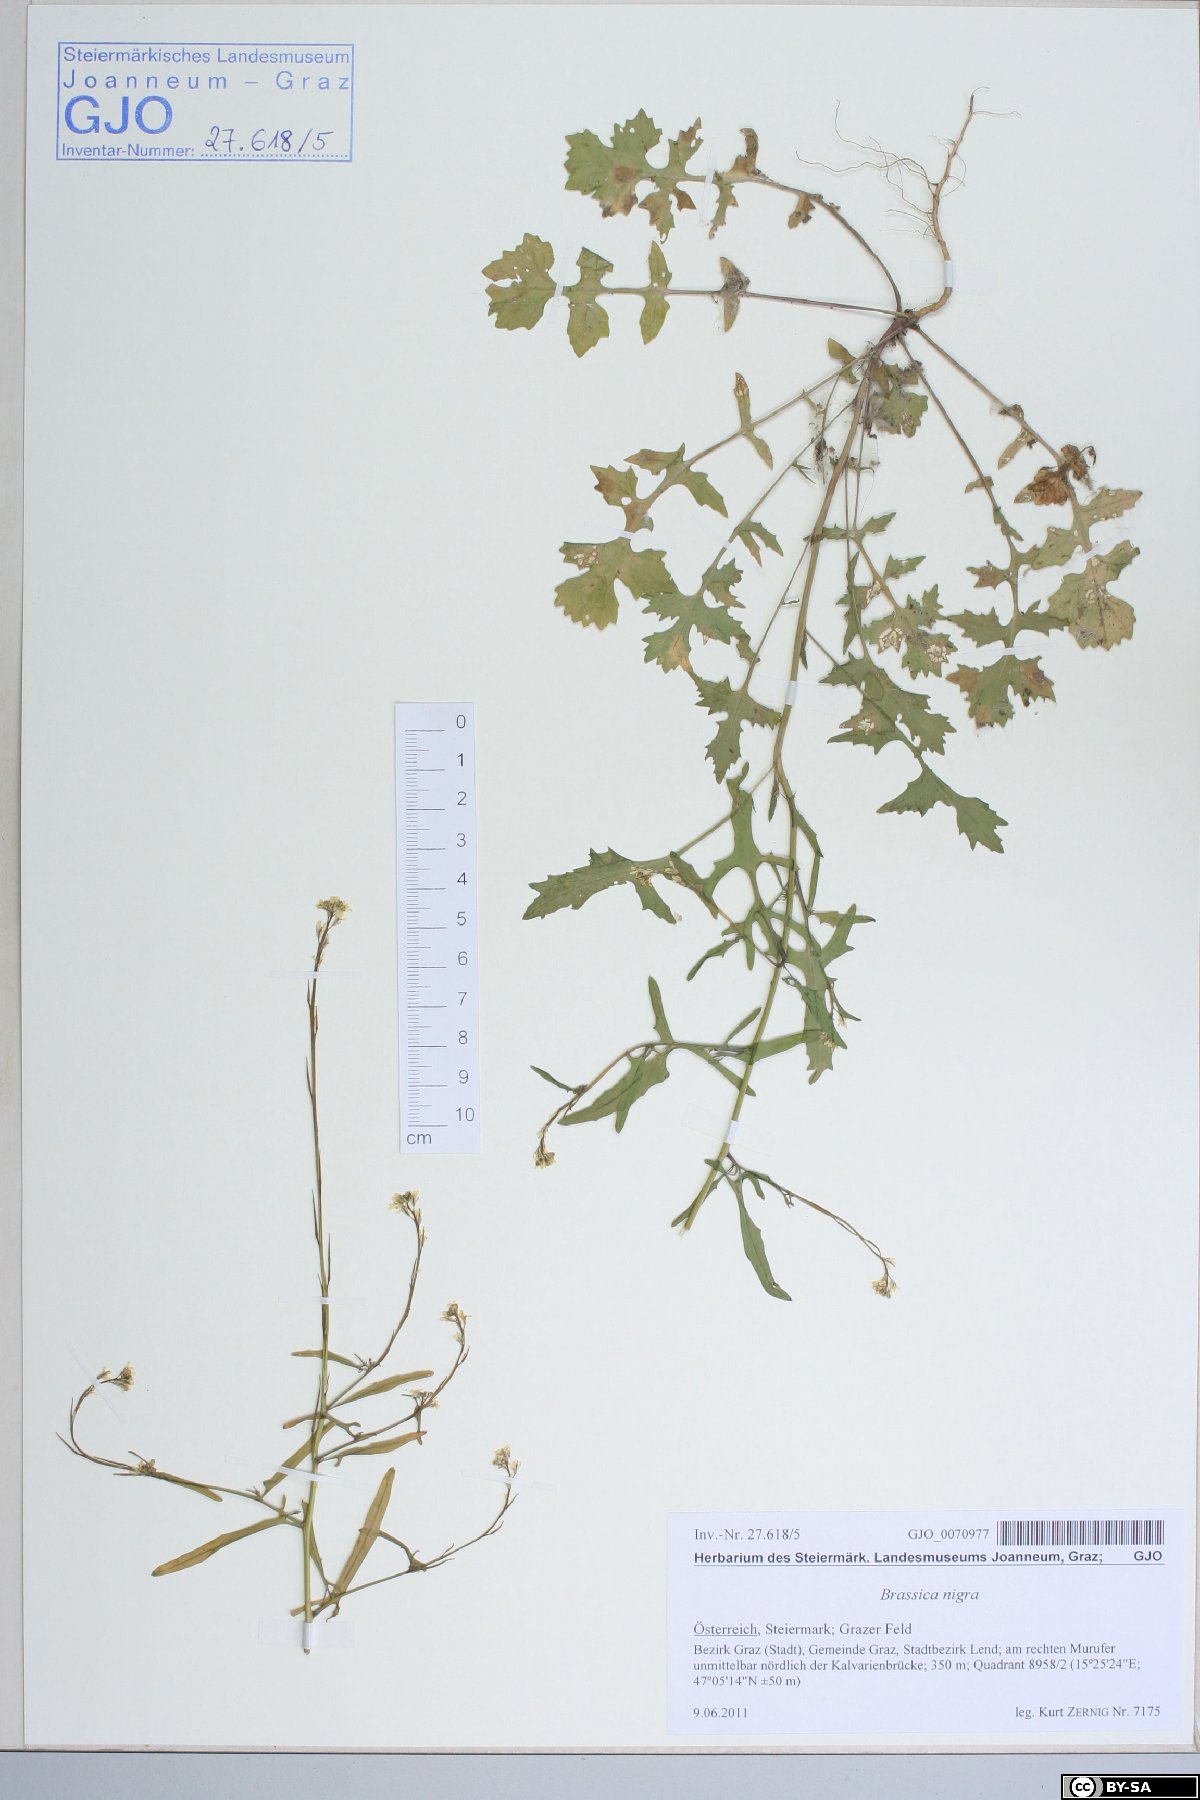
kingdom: Plantae
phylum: Tracheophyta
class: Magnoliopsida
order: Brassicales
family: Brassicaceae
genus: Sisymbrium
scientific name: Sisymbrium officinale
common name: Hedge mustard
